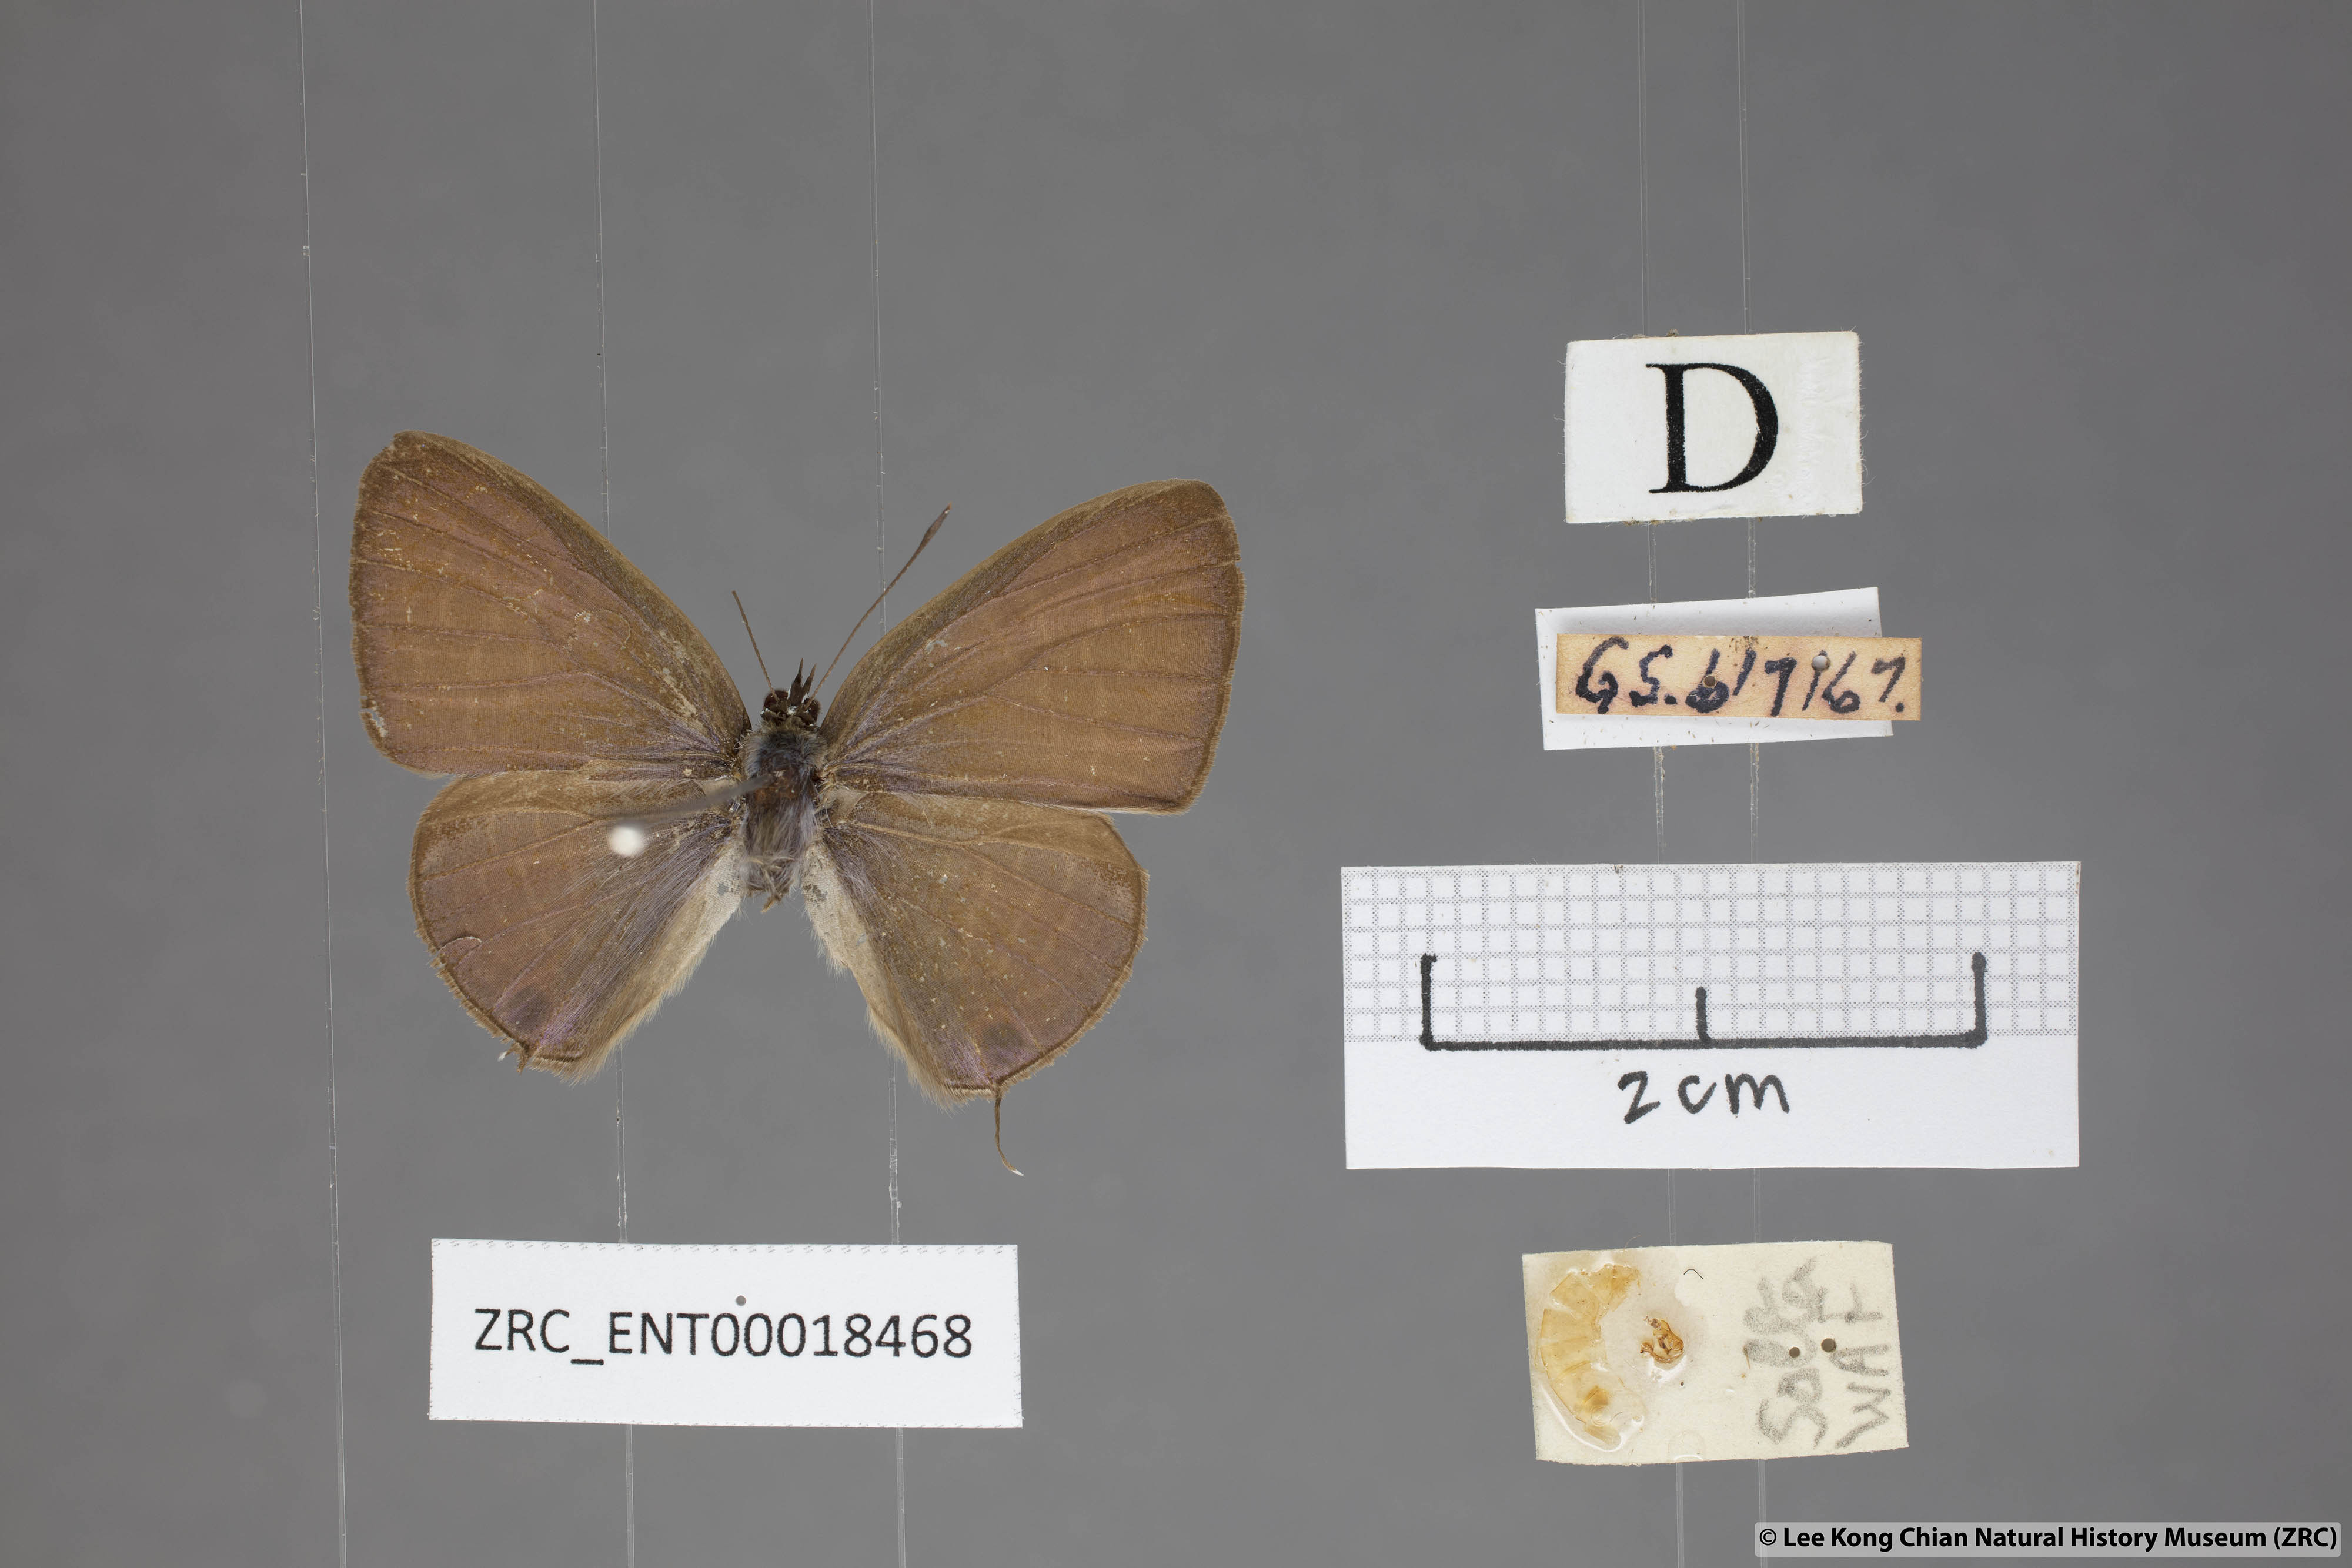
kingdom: Animalia
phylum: Arthropoda
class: Insecta
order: Lepidoptera
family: Lycaenidae
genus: Nacaduba
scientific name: Nacaduba solta
